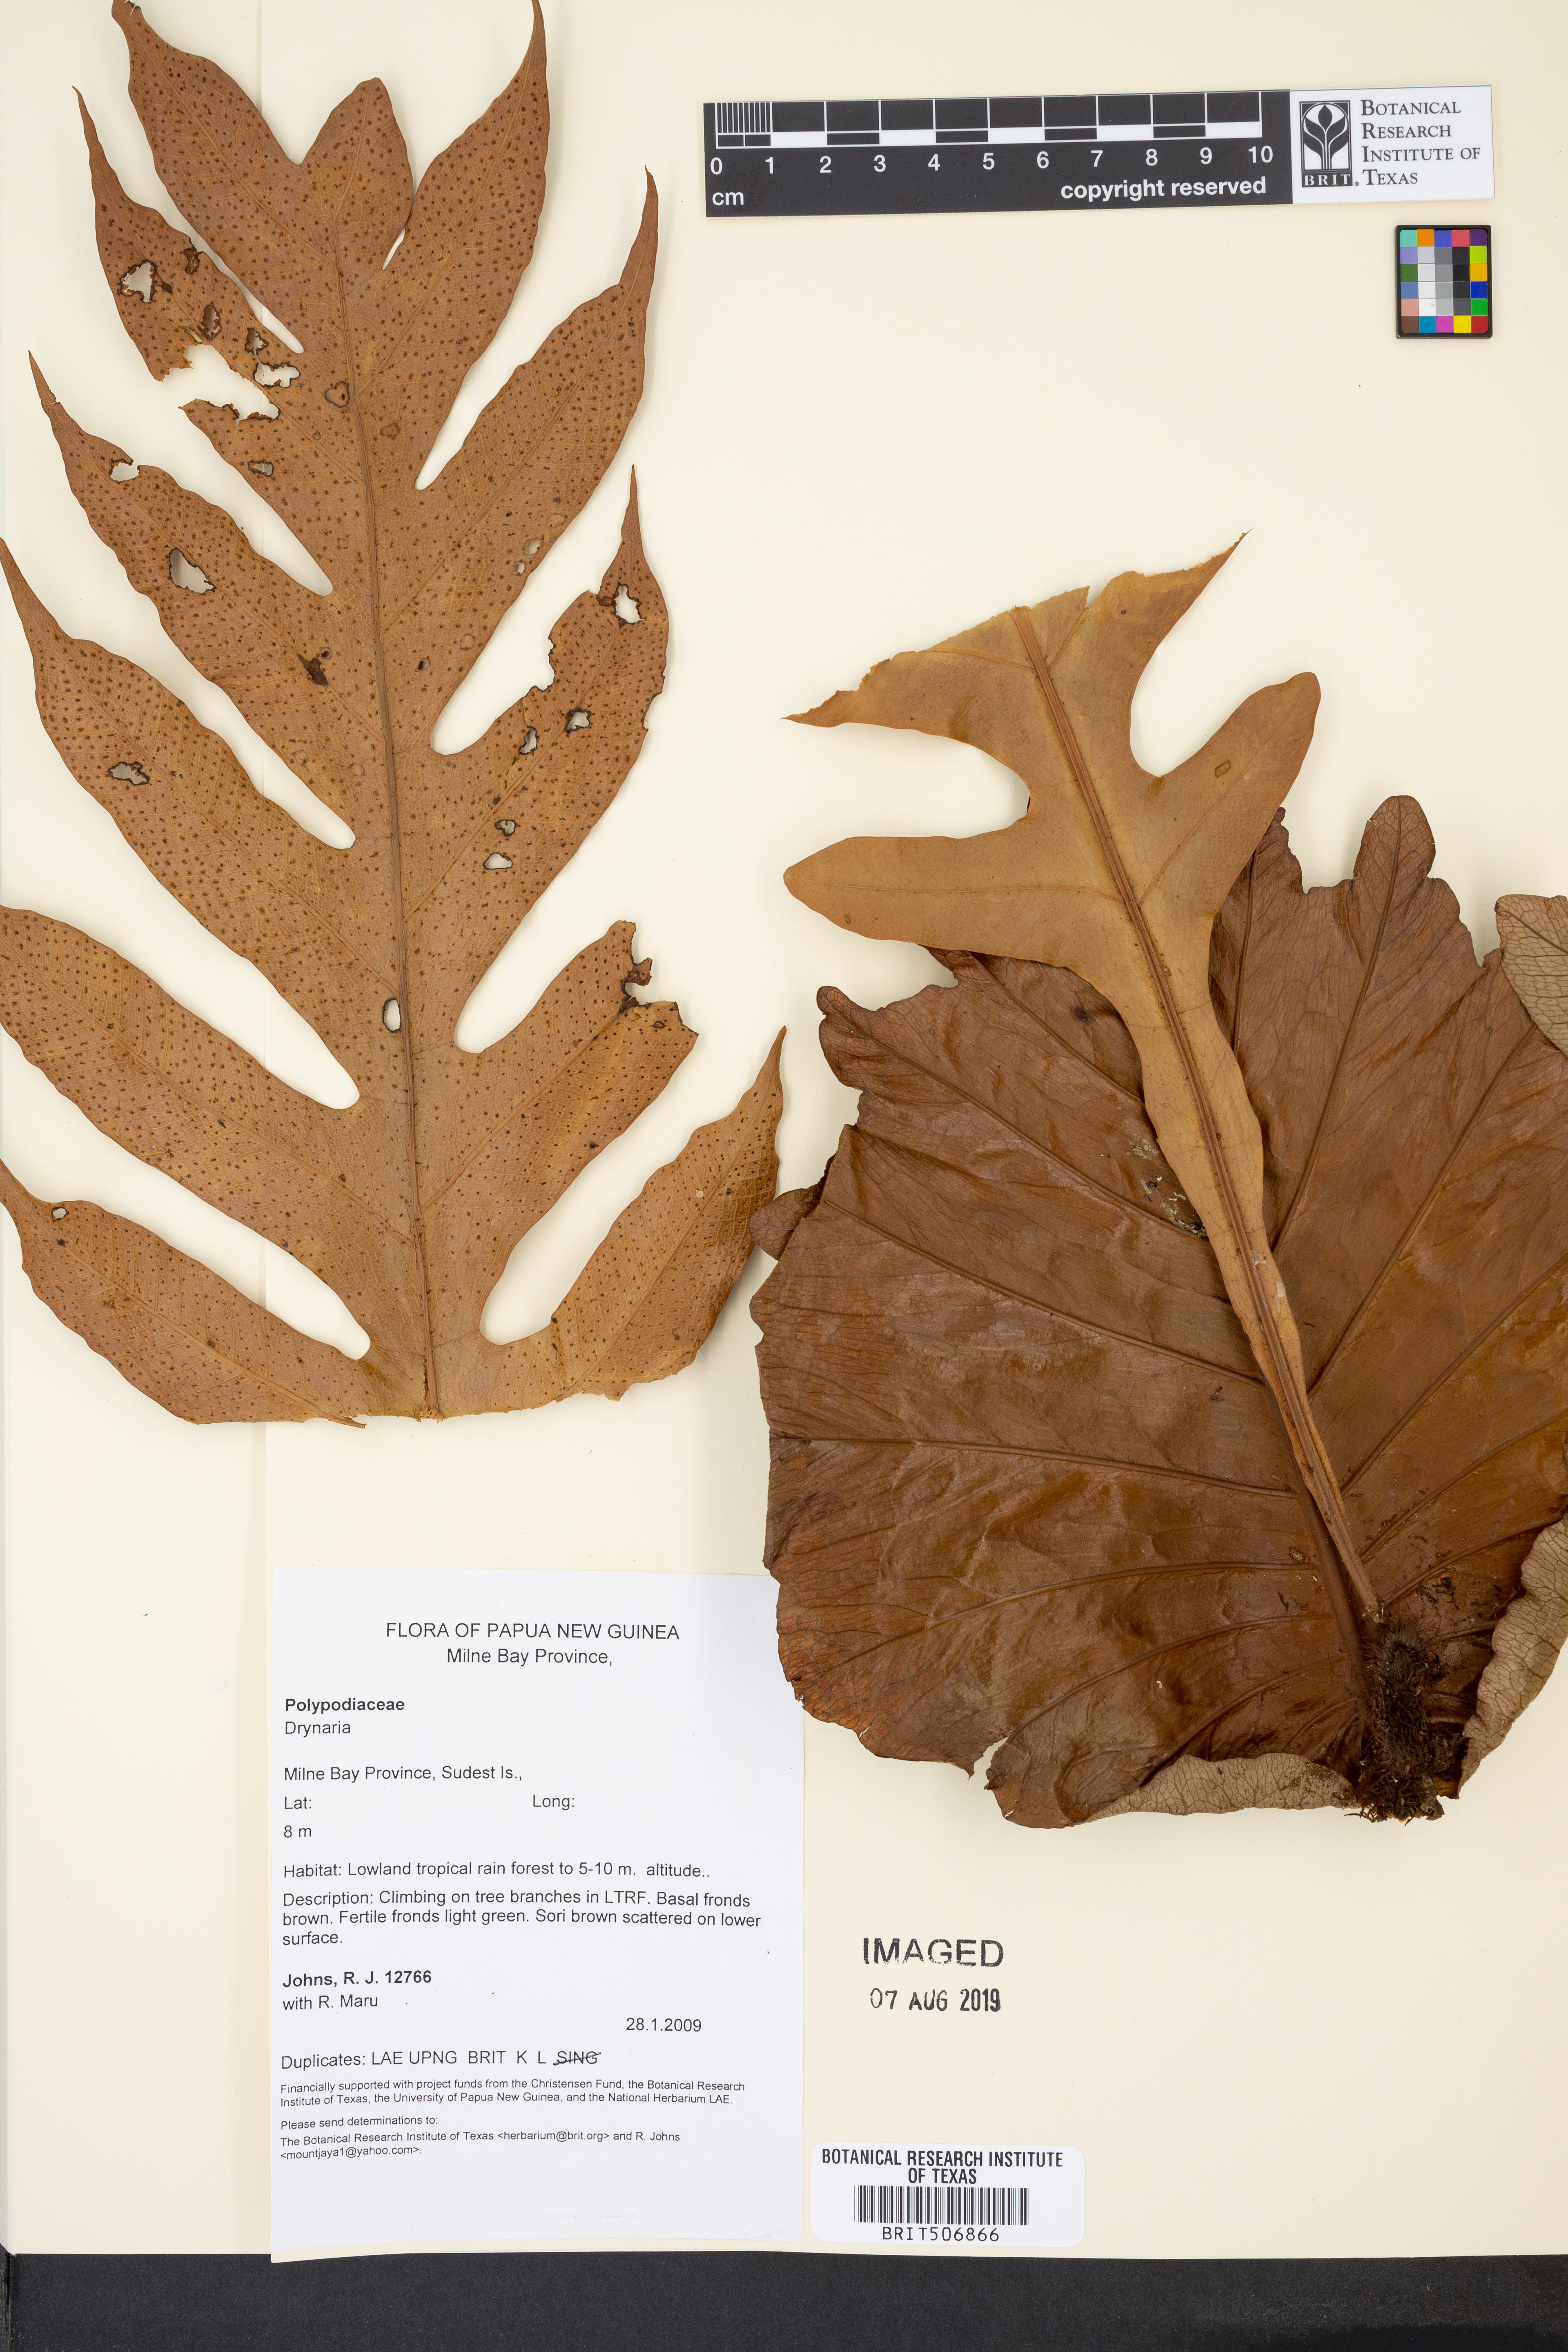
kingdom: Plantae
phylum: Tracheophyta
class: Polypodiopsida
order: Polypodiales
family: Polypodiaceae
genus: Drynaria
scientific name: Drynaria
